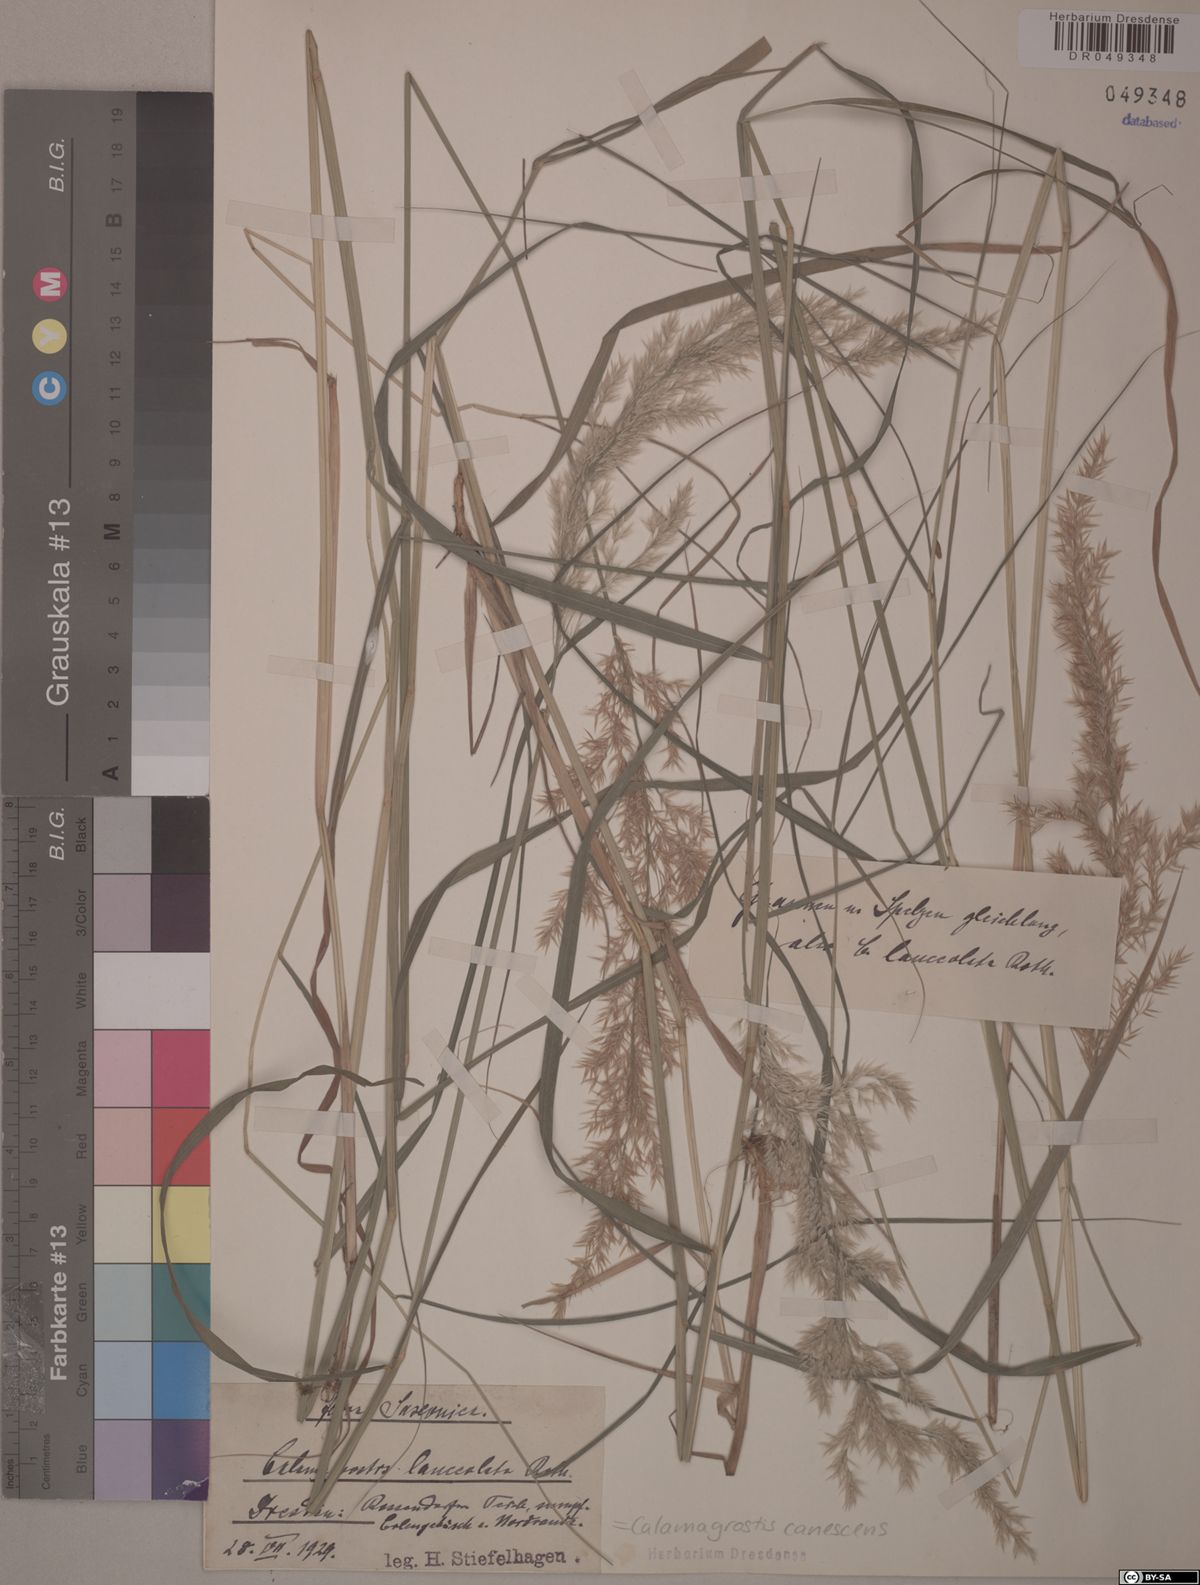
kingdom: Plantae
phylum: Tracheophyta
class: Liliopsida
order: Poales
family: Poaceae
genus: Calamagrostis
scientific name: Calamagrostis canescens
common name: Purple small-reed
